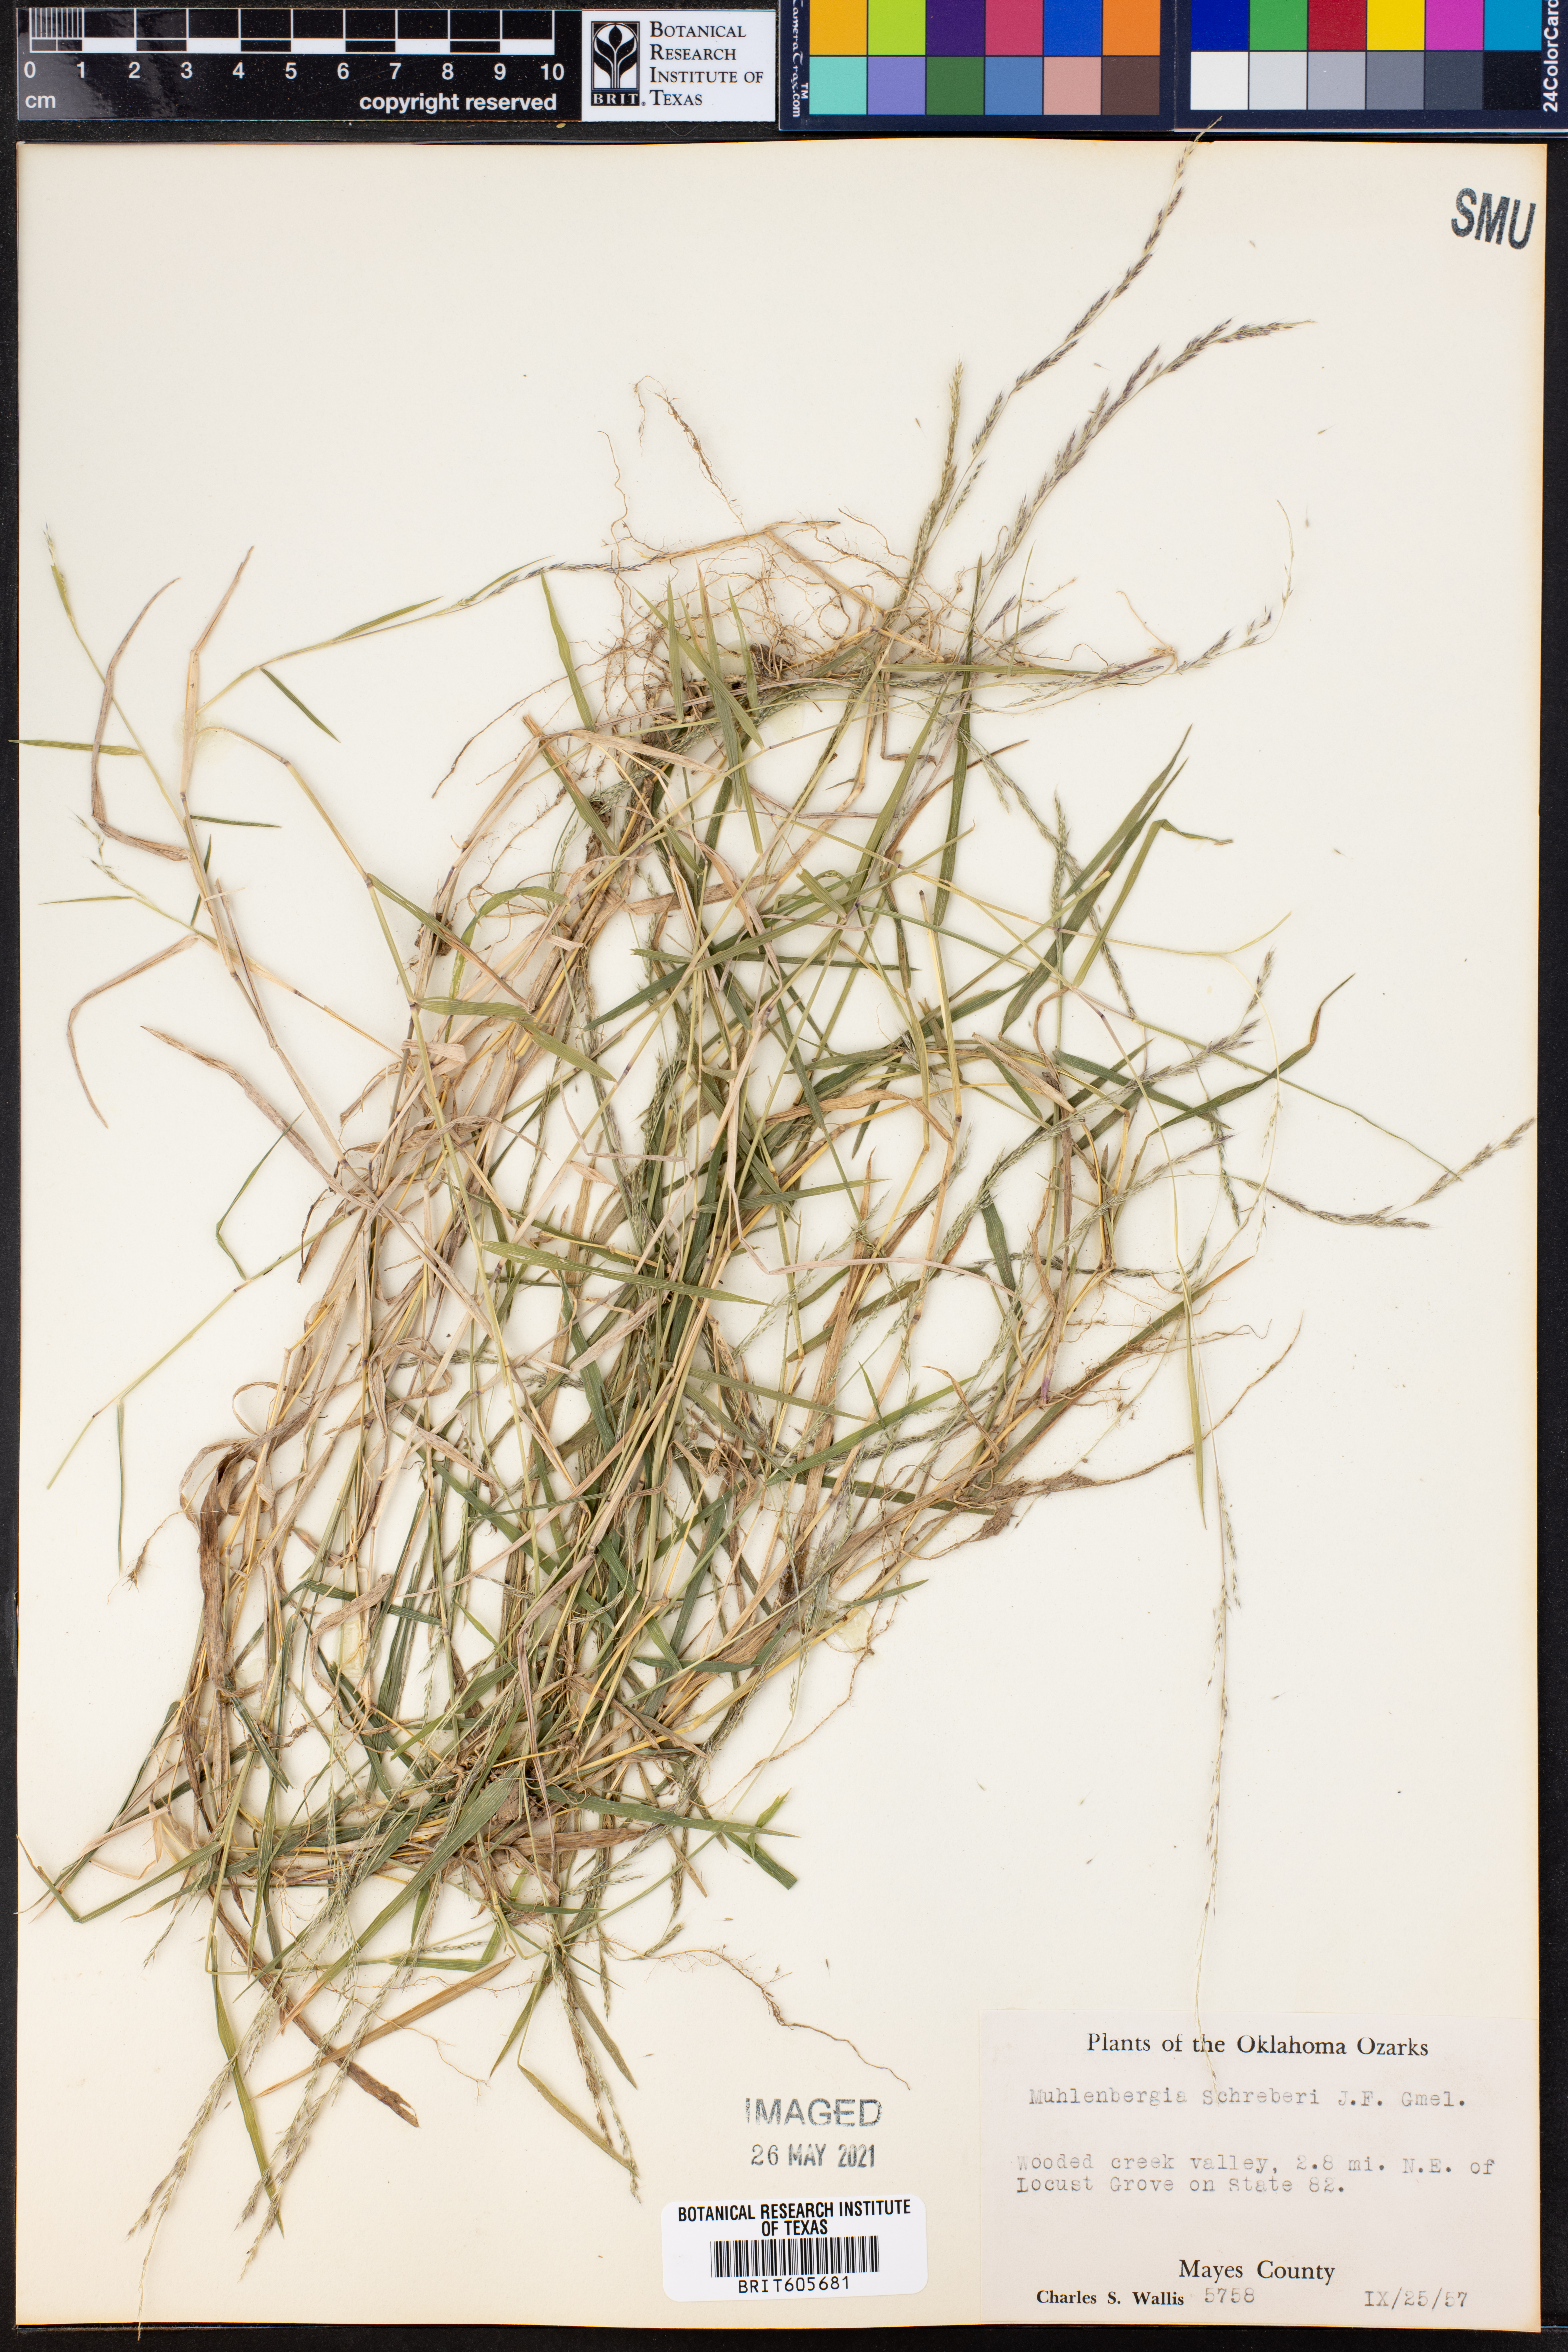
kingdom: Plantae
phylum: Tracheophyta
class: Liliopsida
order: Poales
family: Poaceae
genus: Muhlenbergia
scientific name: Muhlenbergia schreberi
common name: Nimblewill
